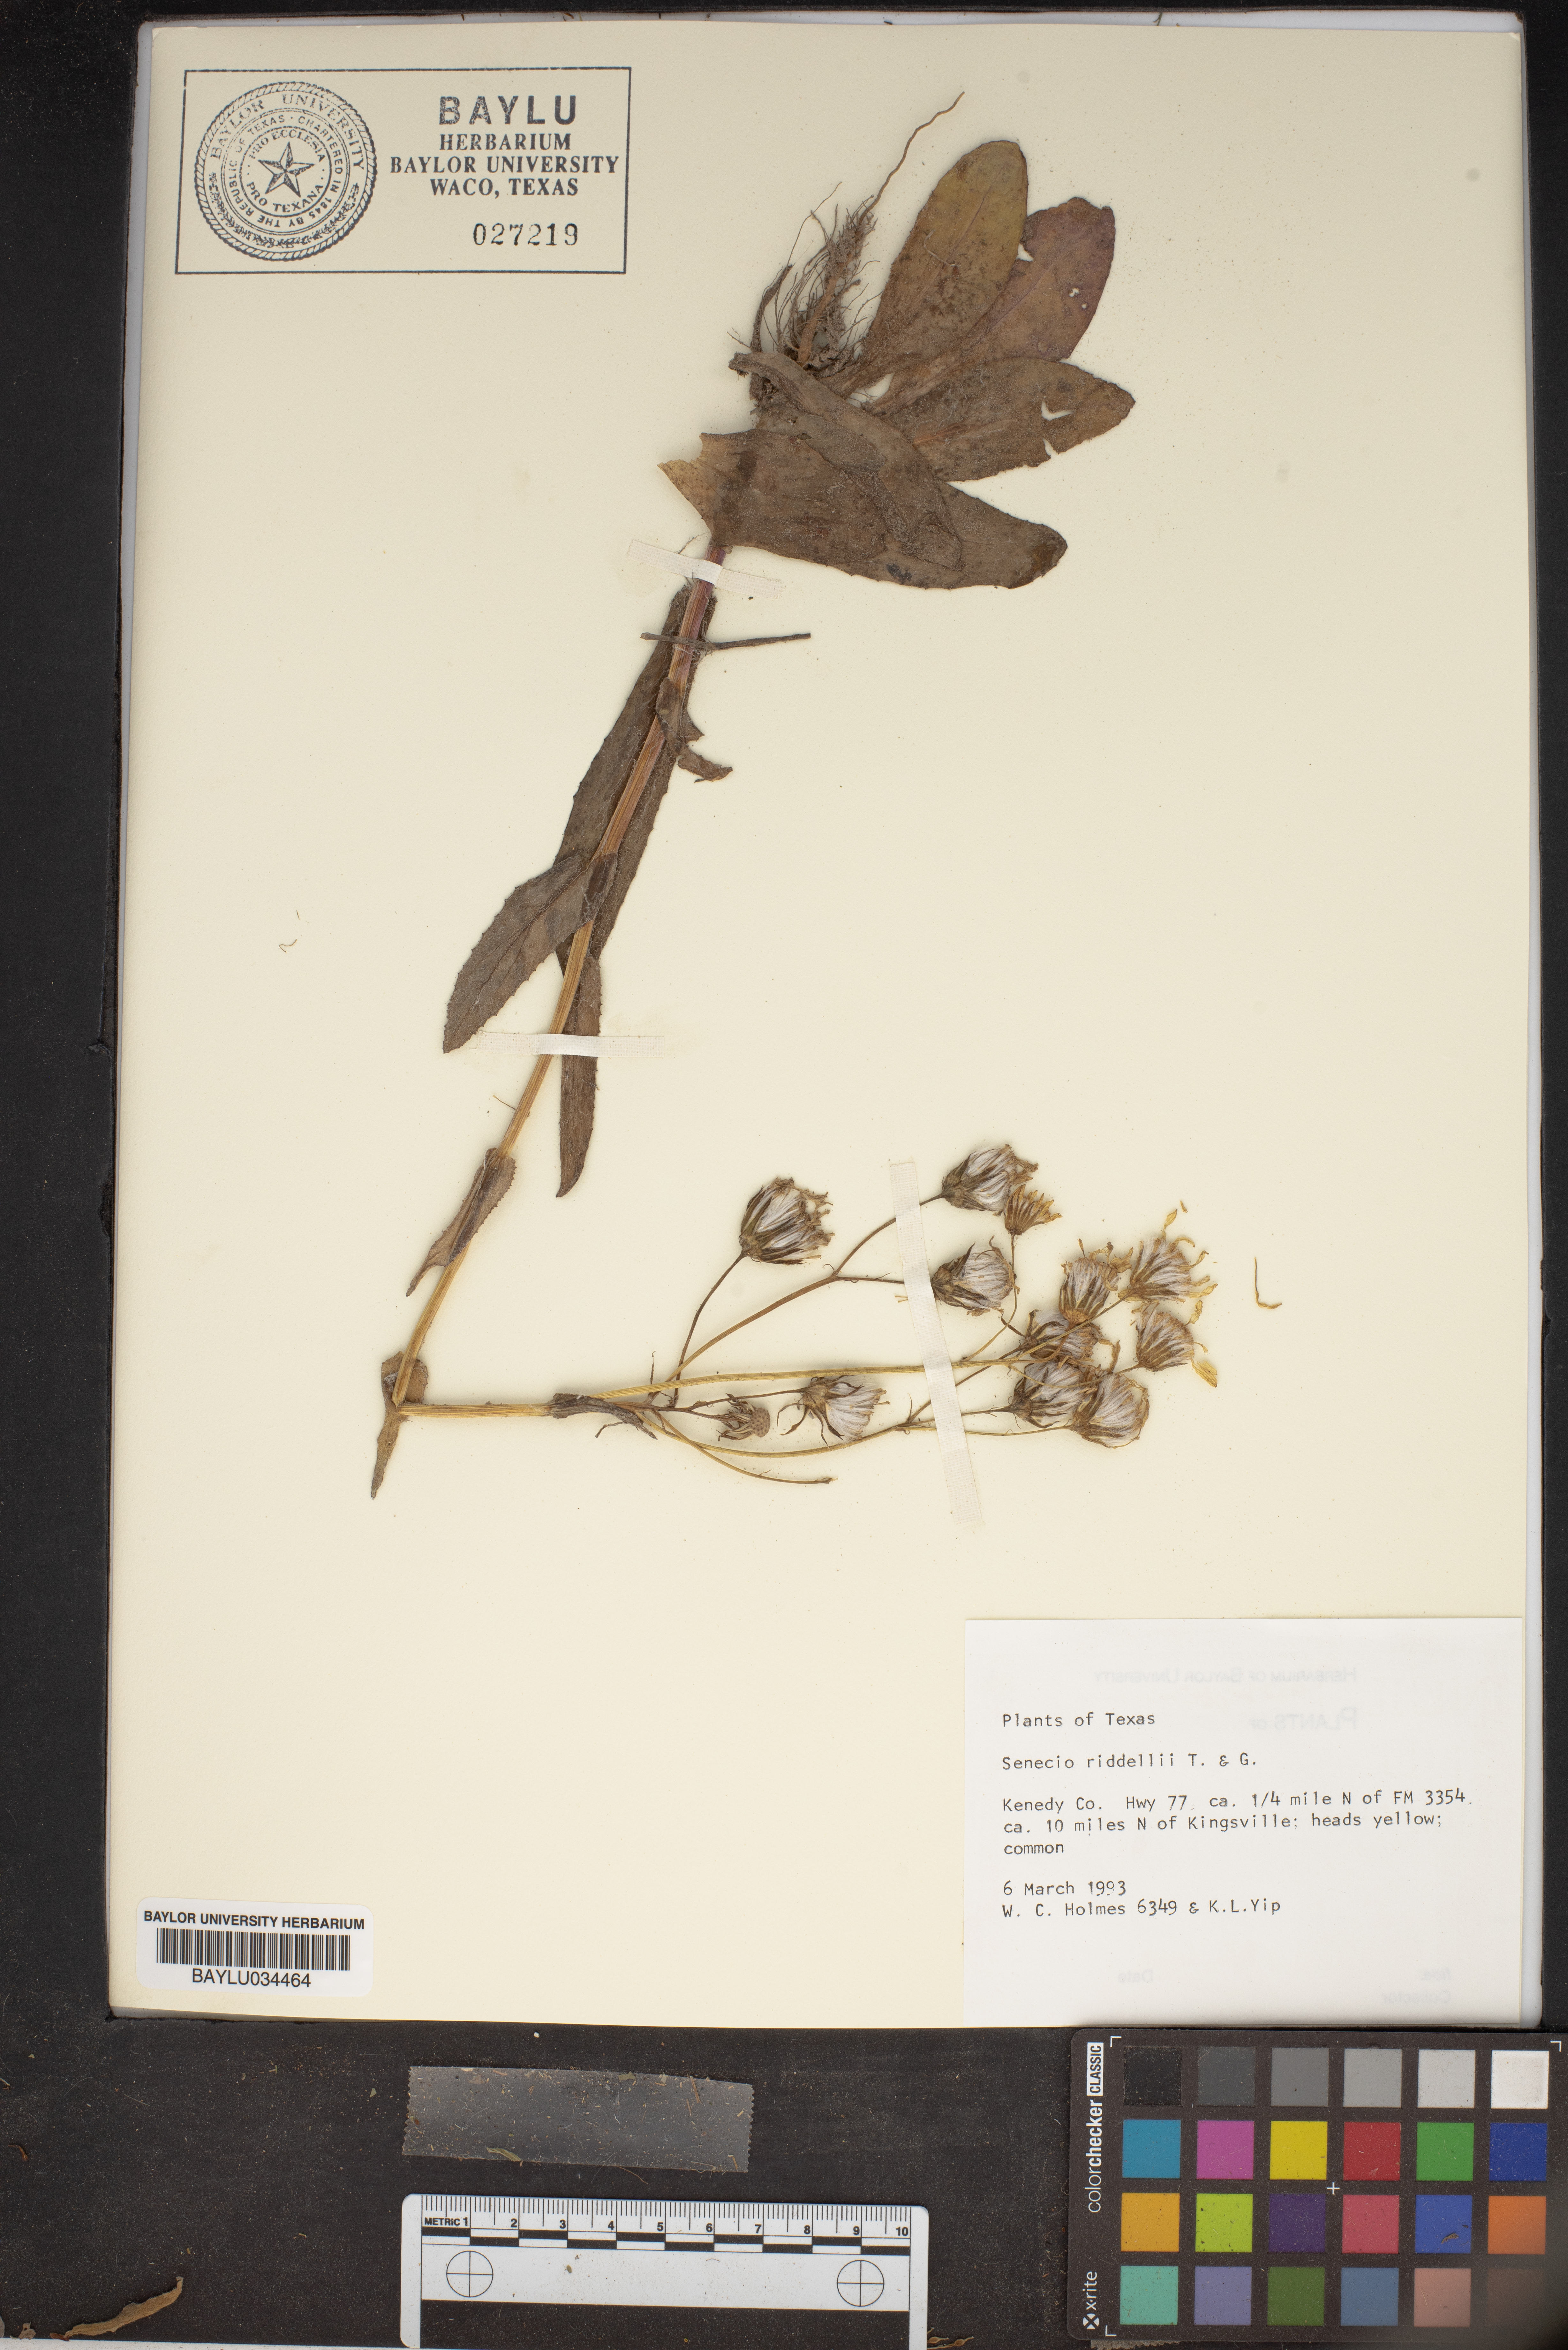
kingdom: Plantae
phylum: Tracheophyta
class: Magnoliopsida
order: Asterales
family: Asteraceae
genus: Senecio
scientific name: Senecio riddellii
